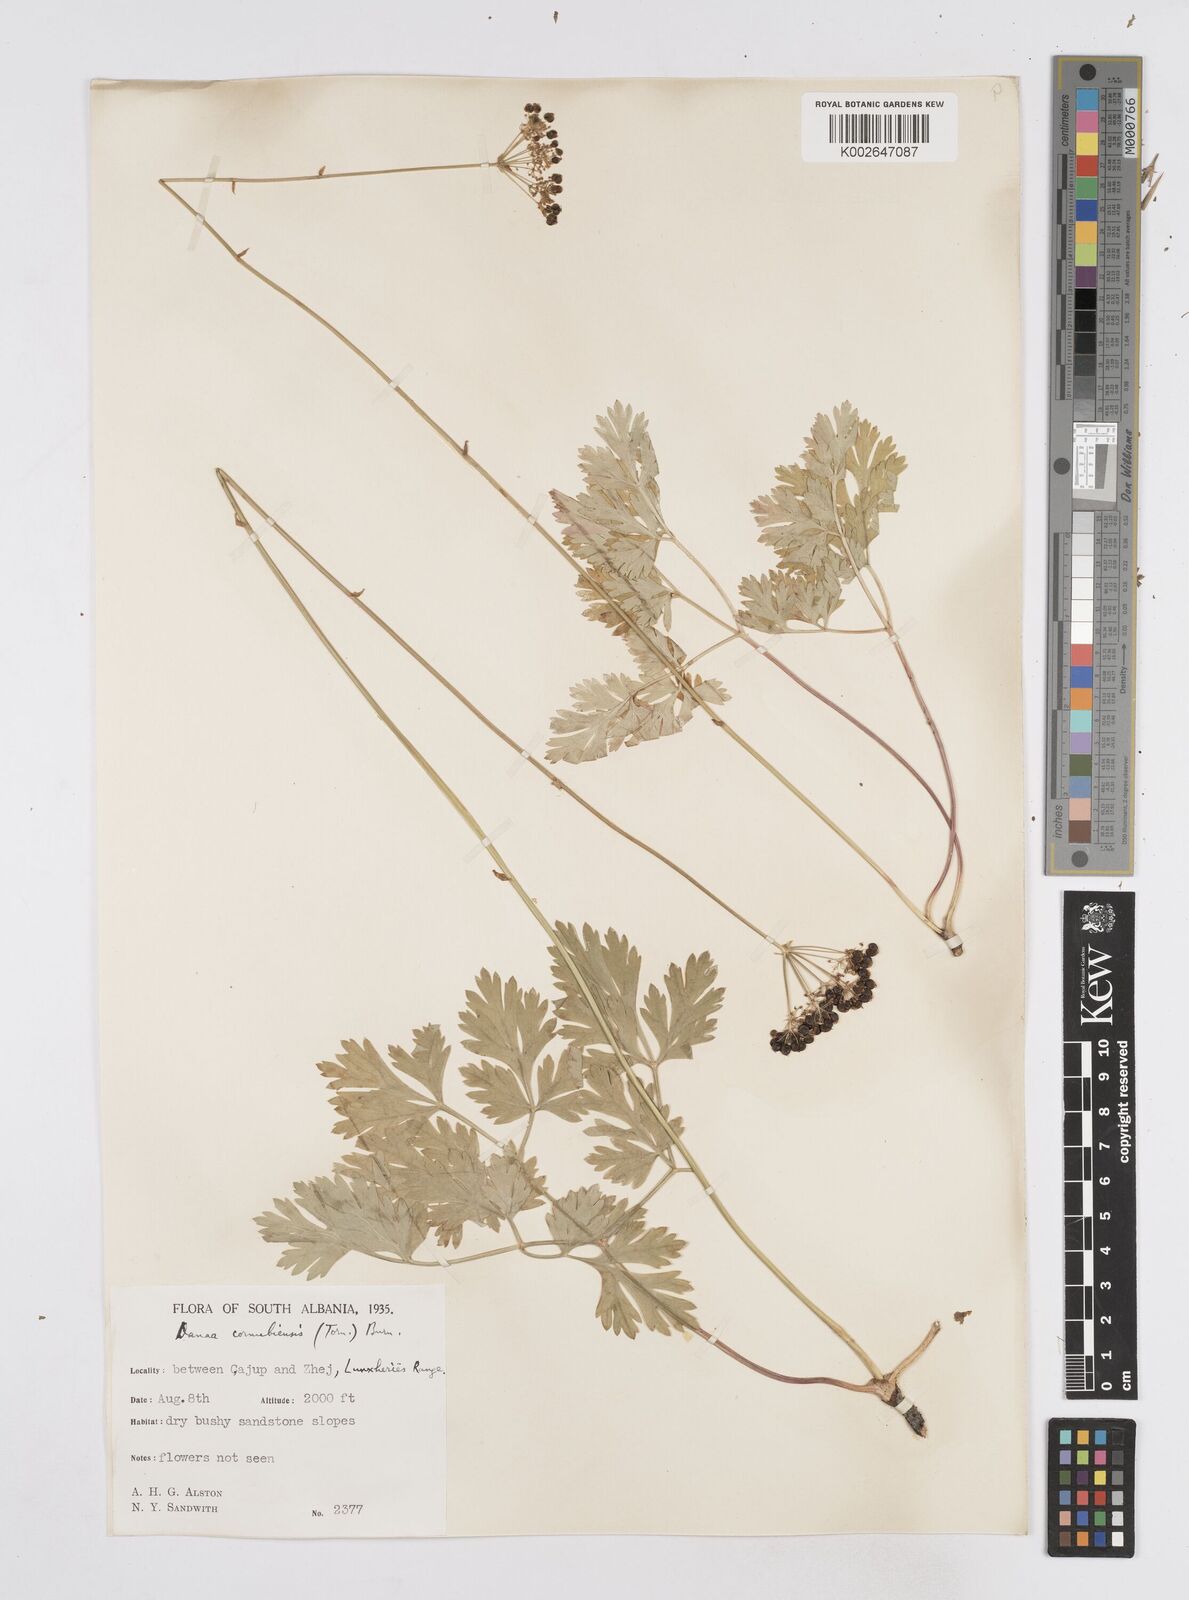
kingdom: Plantae
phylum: Tracheophyta
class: Magnoliopsida
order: Apiales
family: Apiaceae
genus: Physospermum
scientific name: Physospermum cornubiense
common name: Bladderseed
